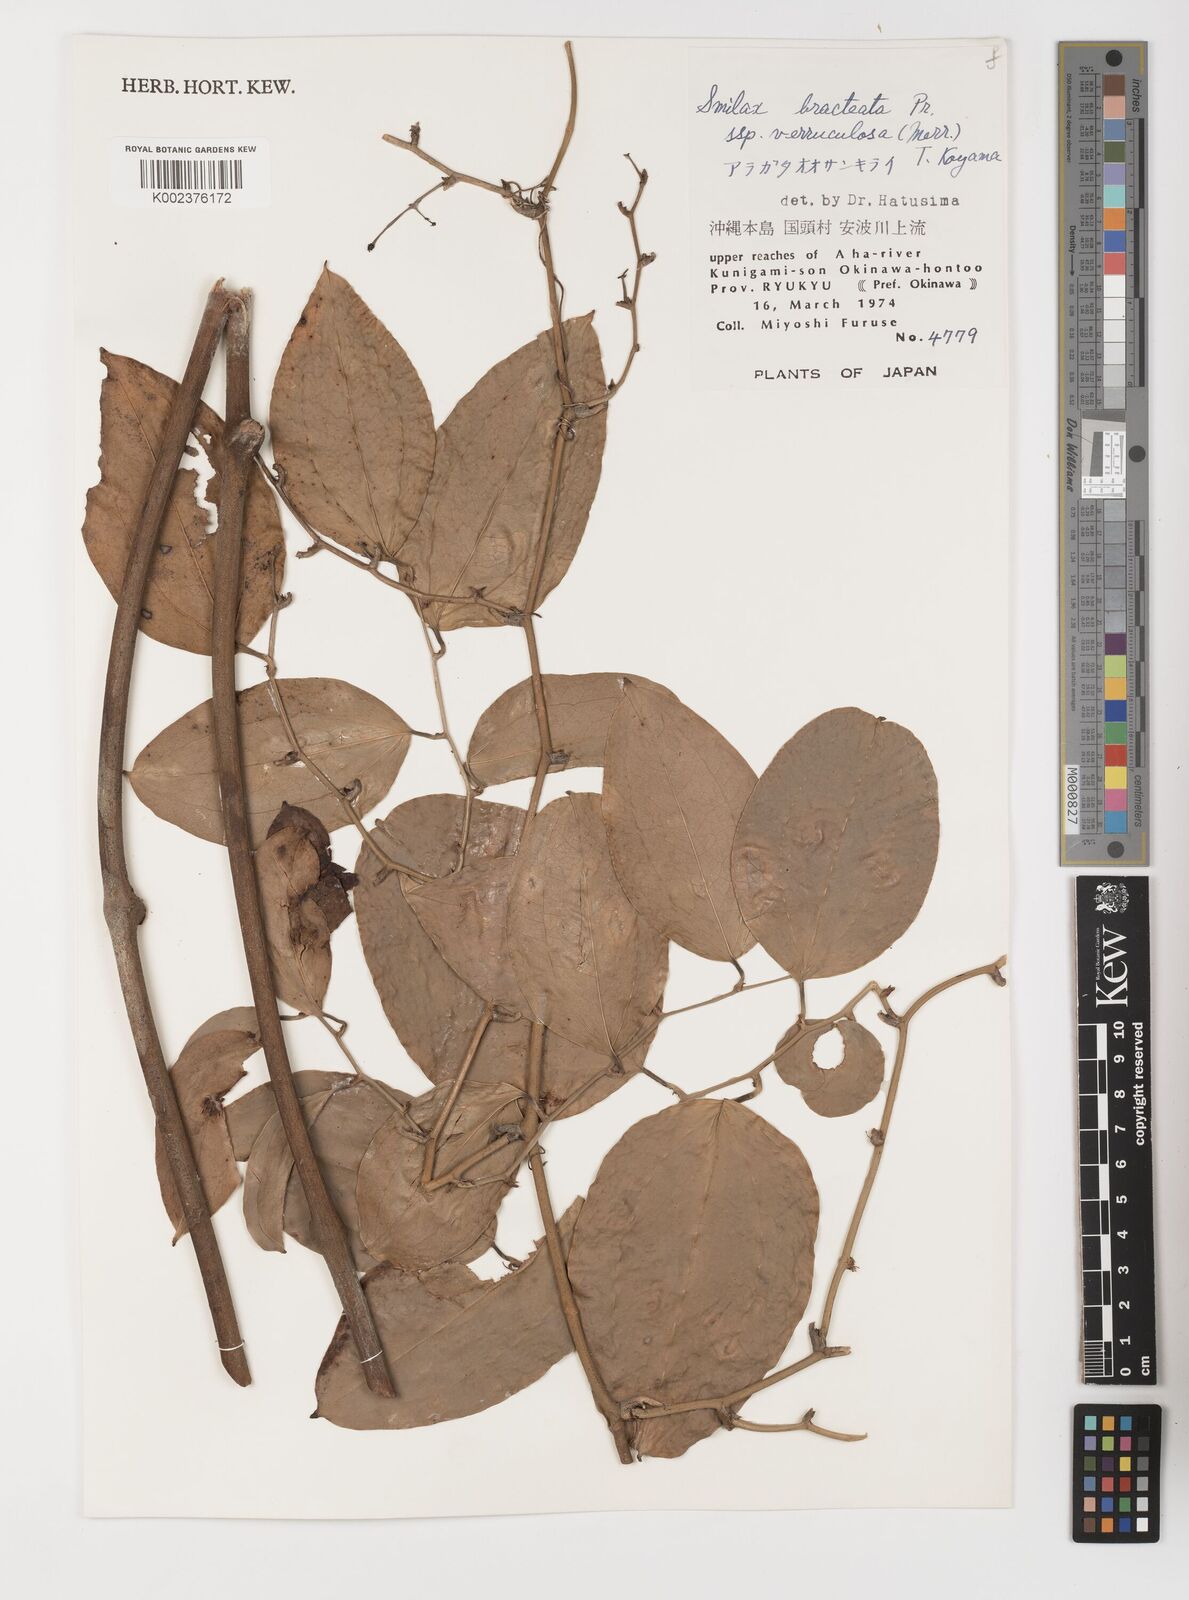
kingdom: Plantae
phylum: Tracheophyta
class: Liliopsida
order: Liliales
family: Smilacaceae
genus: Smilax
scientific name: Smilax aspericaulis
